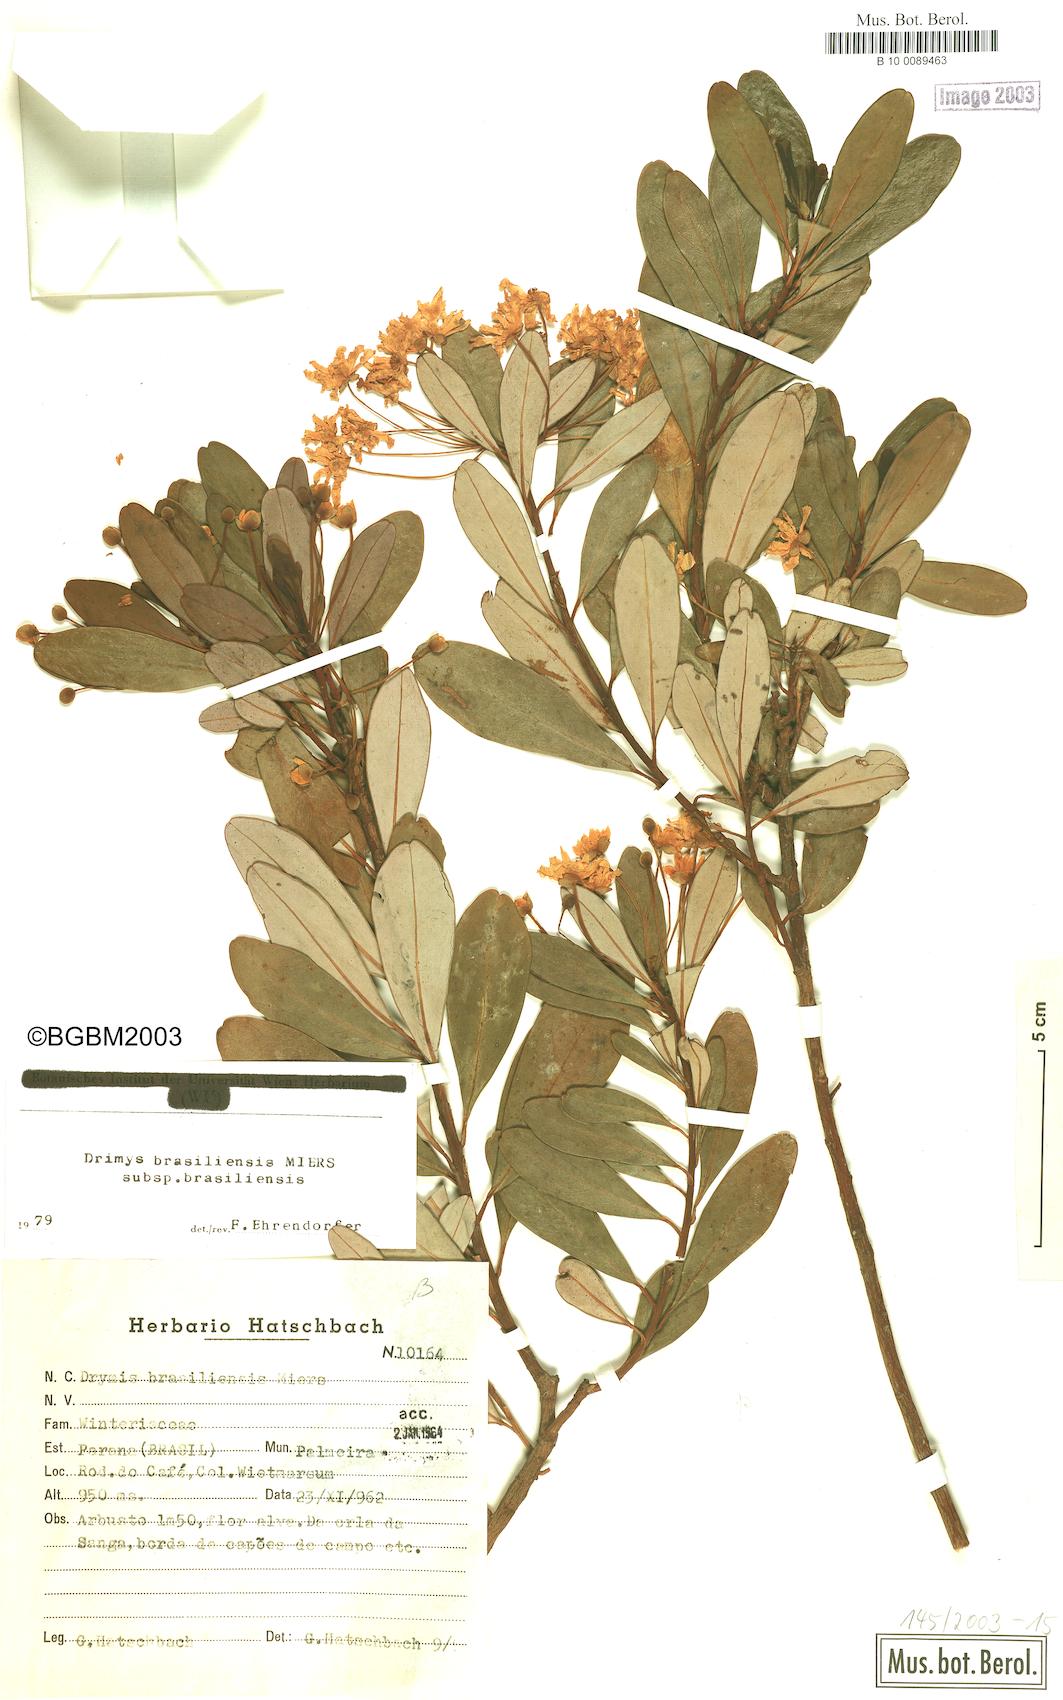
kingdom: Plantae
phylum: Tracheophyta
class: Magnoliopsida
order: Canellales
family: Winteraceae
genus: Drimys
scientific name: Drimys brasiliensis
